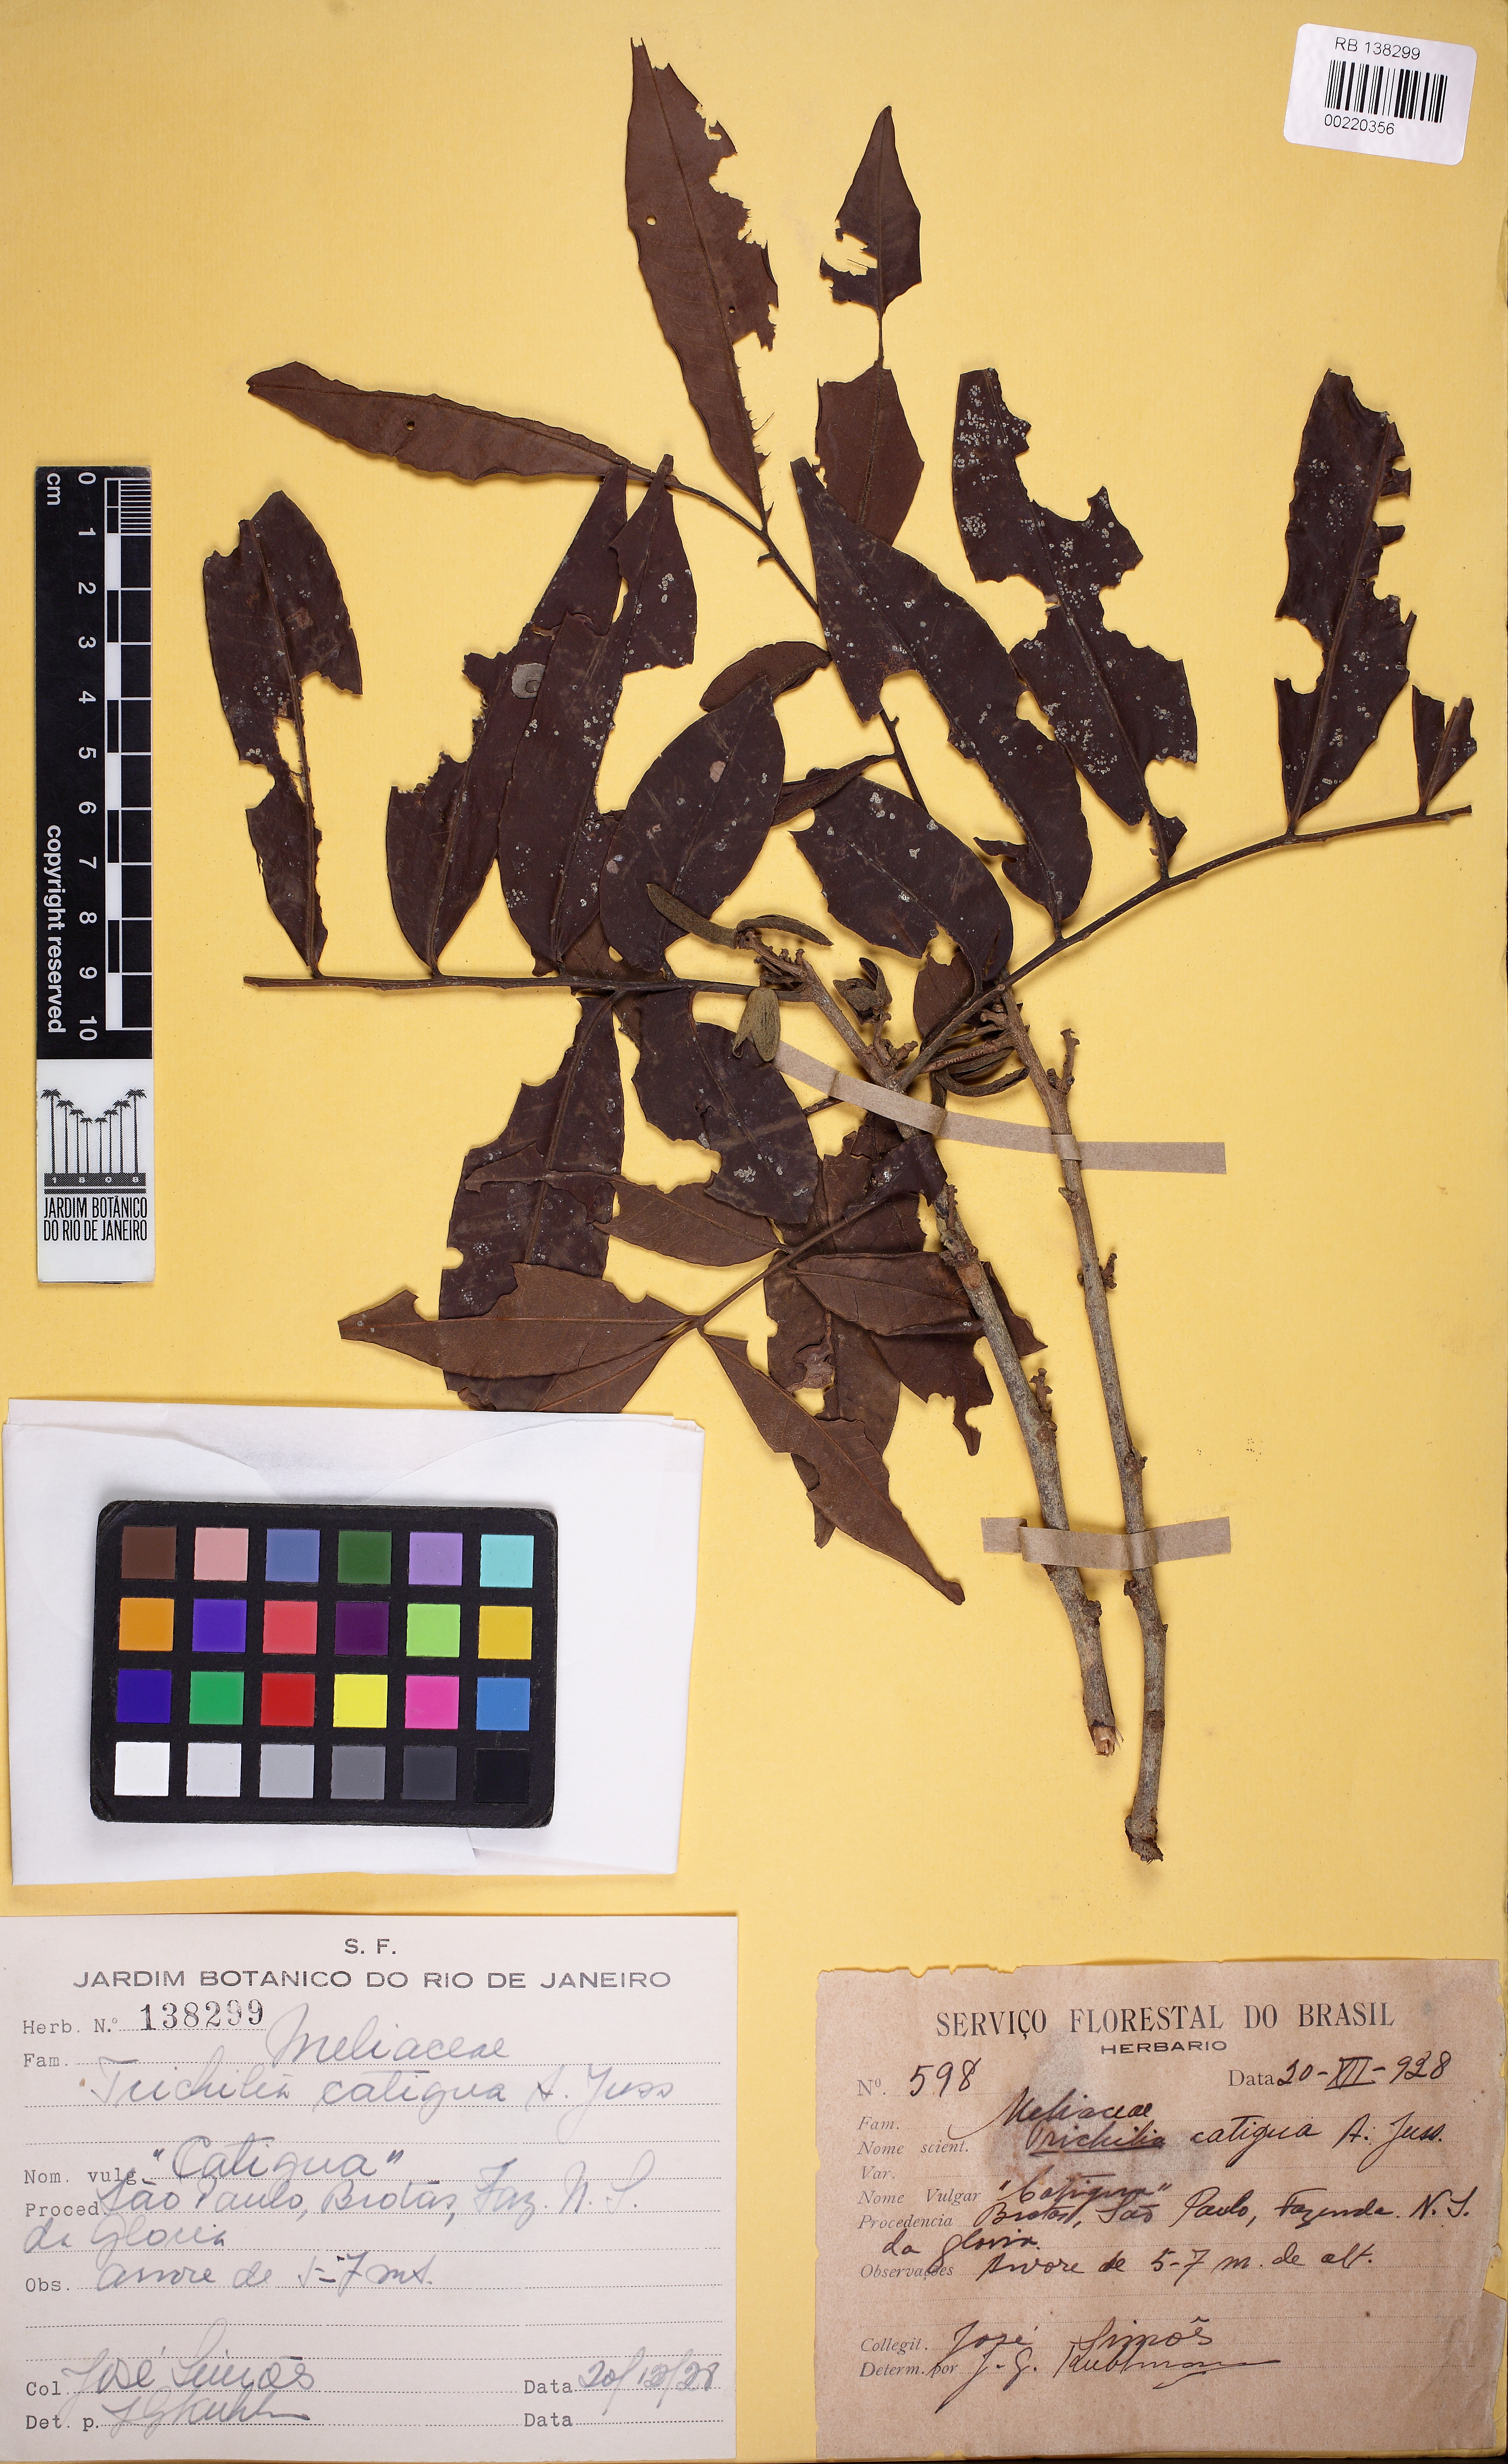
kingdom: Plantae
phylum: Tracheophyta
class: Magnoliopsida
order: Sapindales
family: Meliaceae
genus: Trichilia
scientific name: Trichilia catigua
